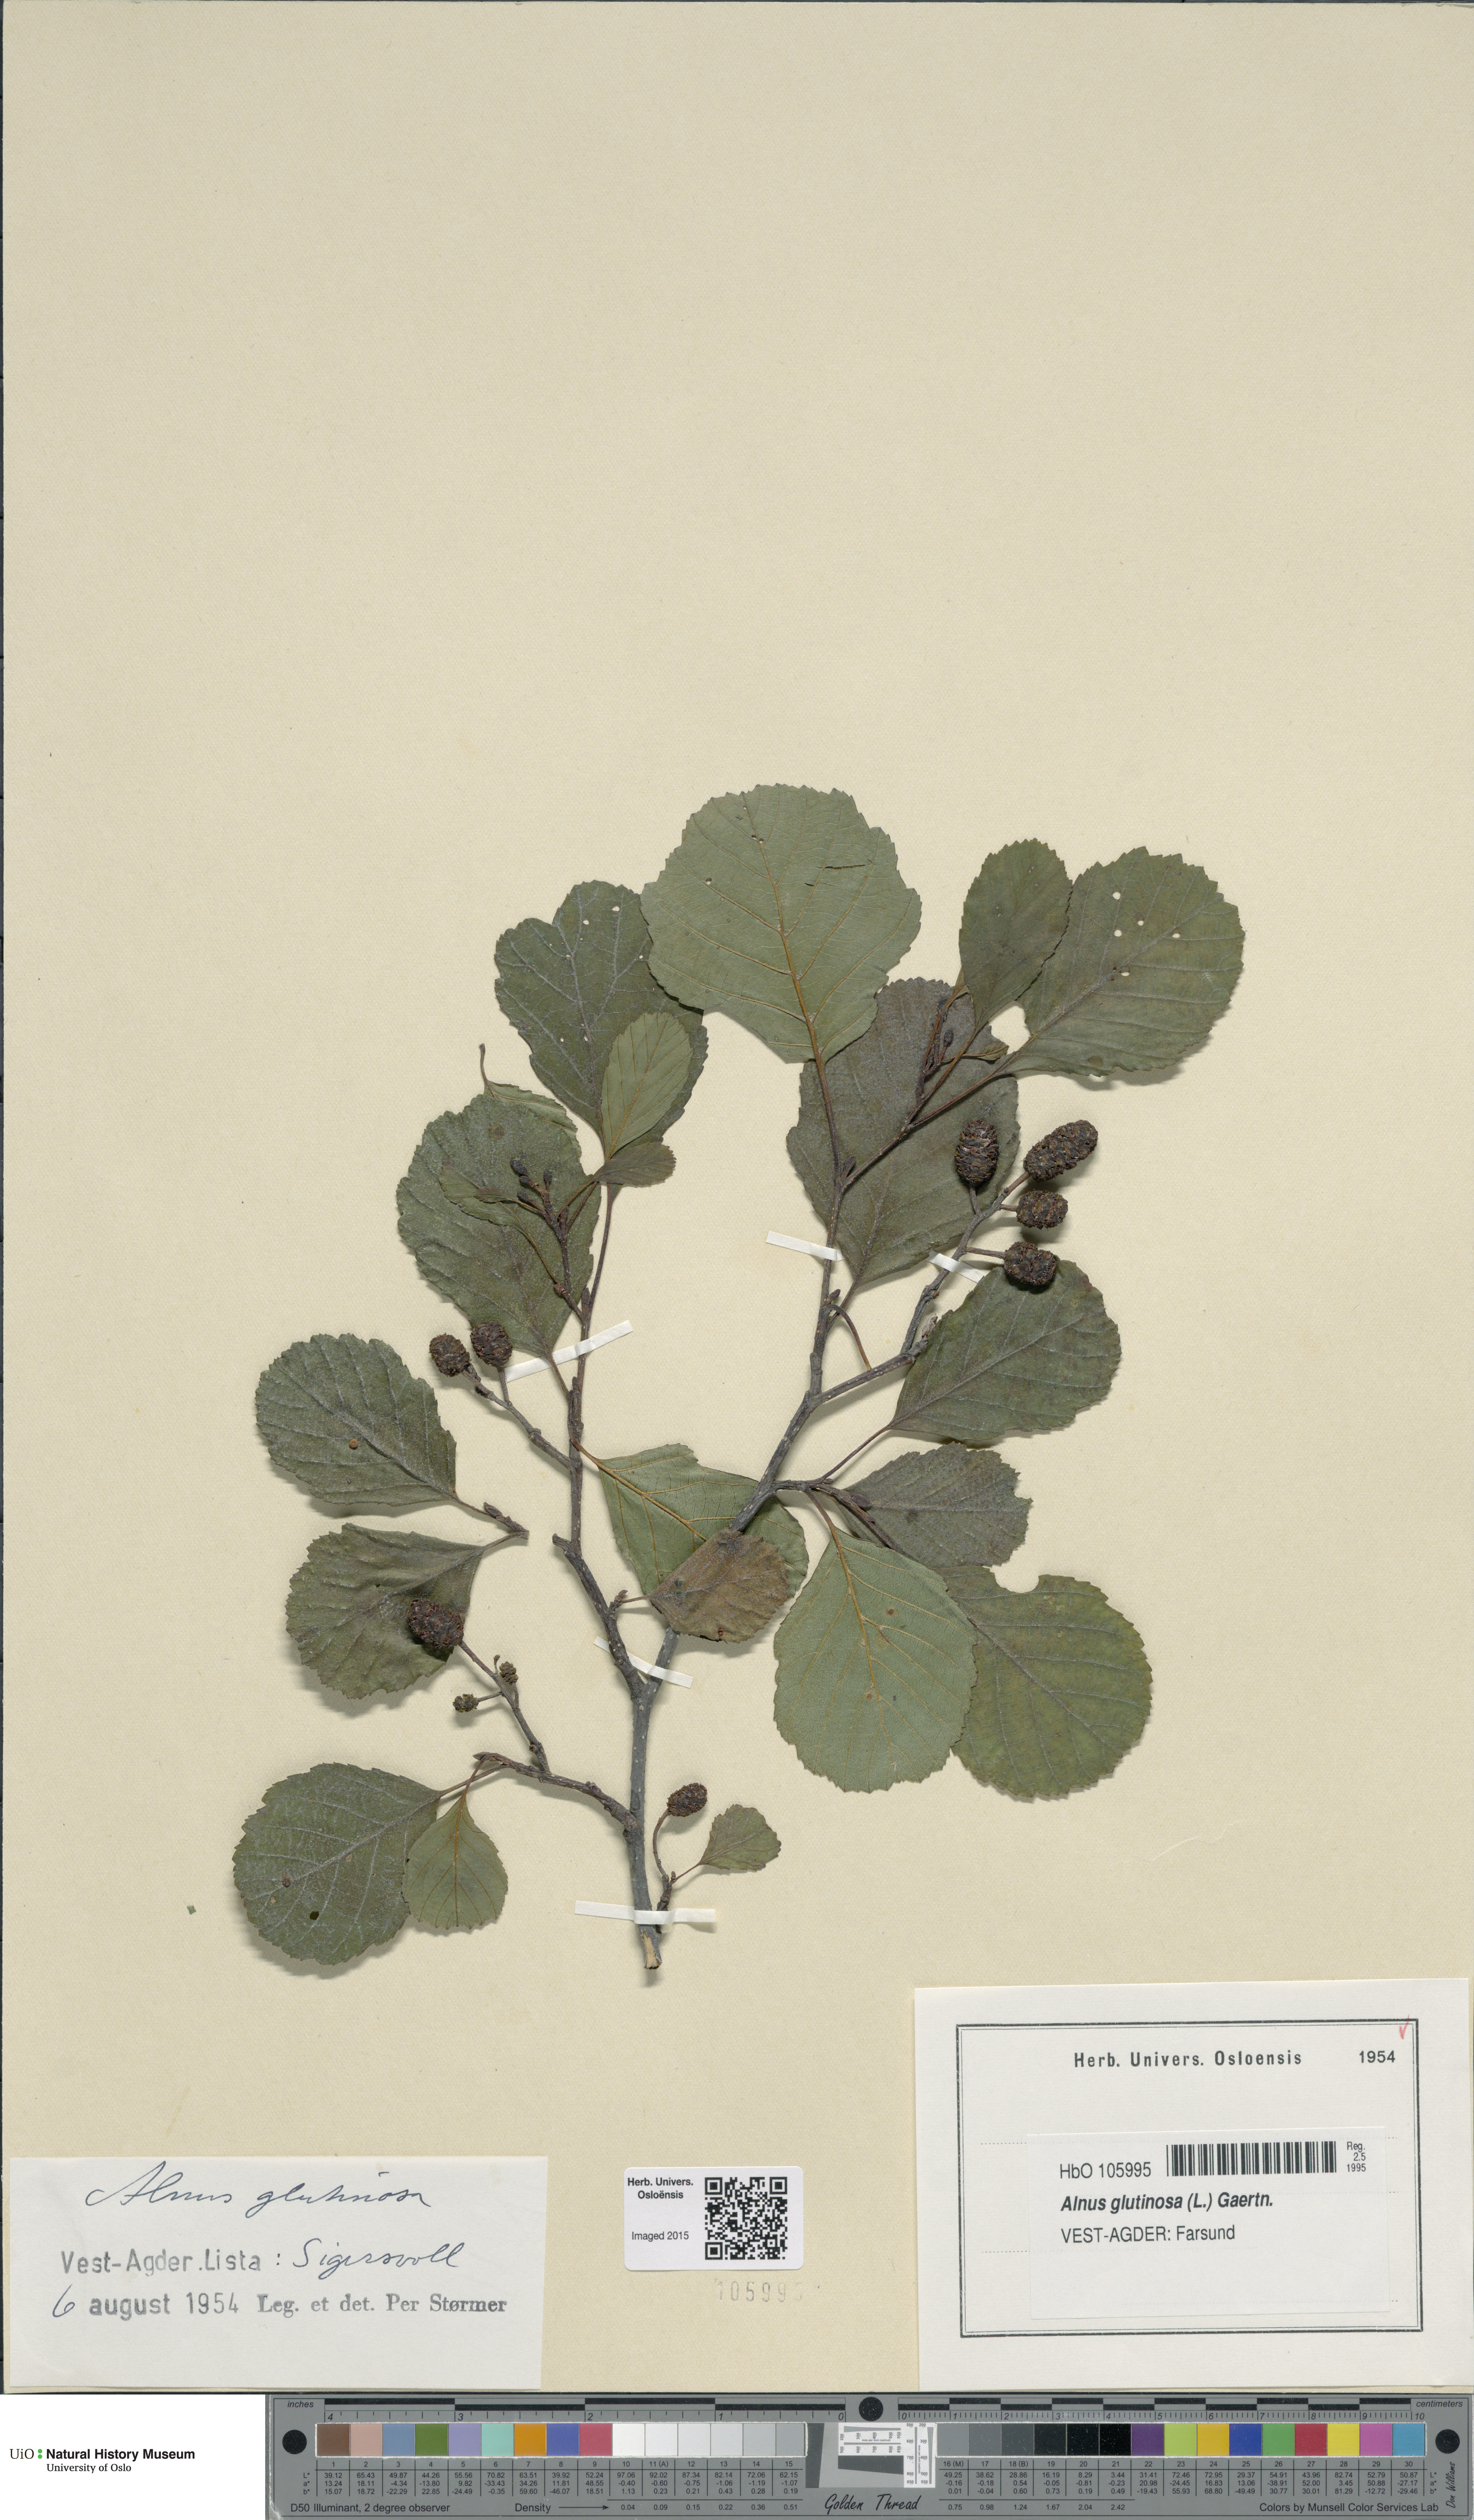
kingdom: Plantae
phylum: Tracheophyta
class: Magnoliopsida
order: Fagales
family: Betulaceae
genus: Alnus
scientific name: Alnus glutinosa
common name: Black alder
